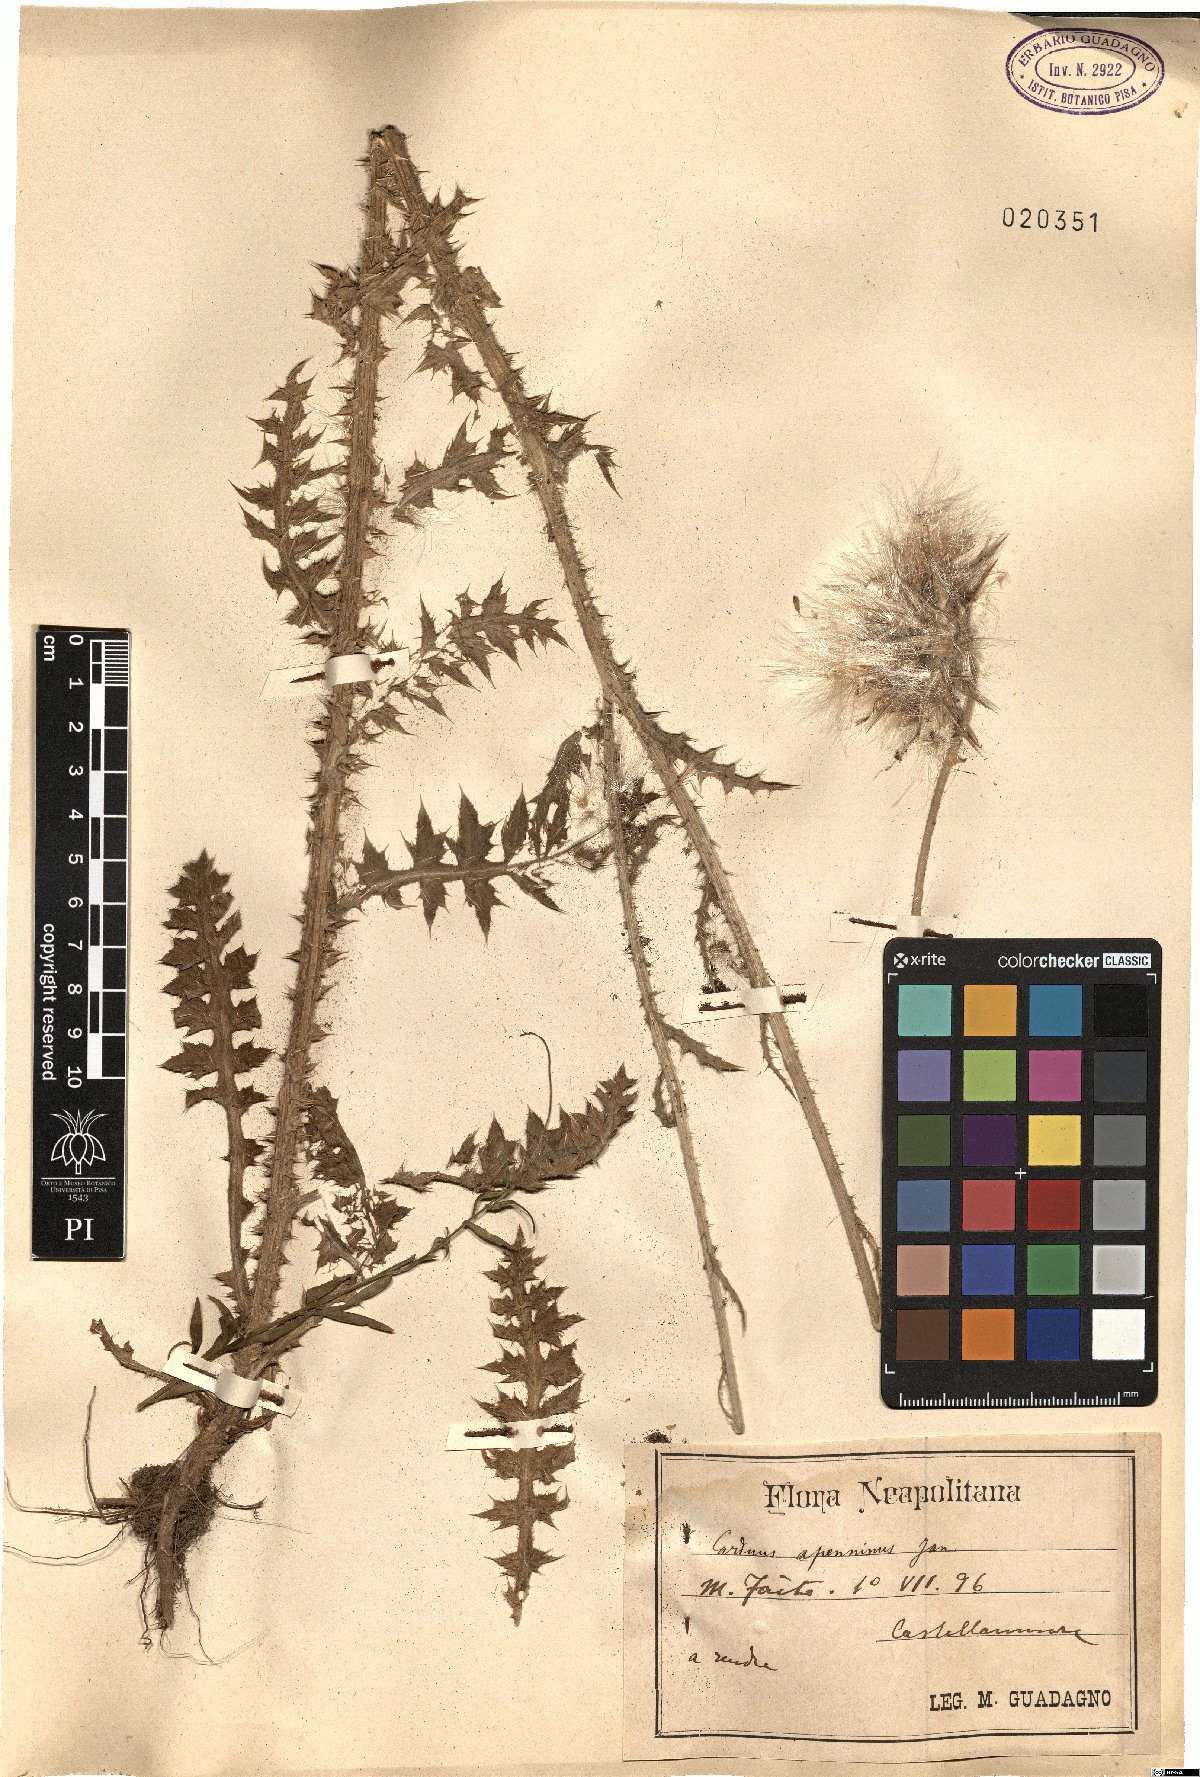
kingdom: Plantae
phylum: Tracheophyta
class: Magnoliopsida
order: Asterales
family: Asteraceae
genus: Carduus
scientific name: Carduus nutans
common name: Musk thistle
